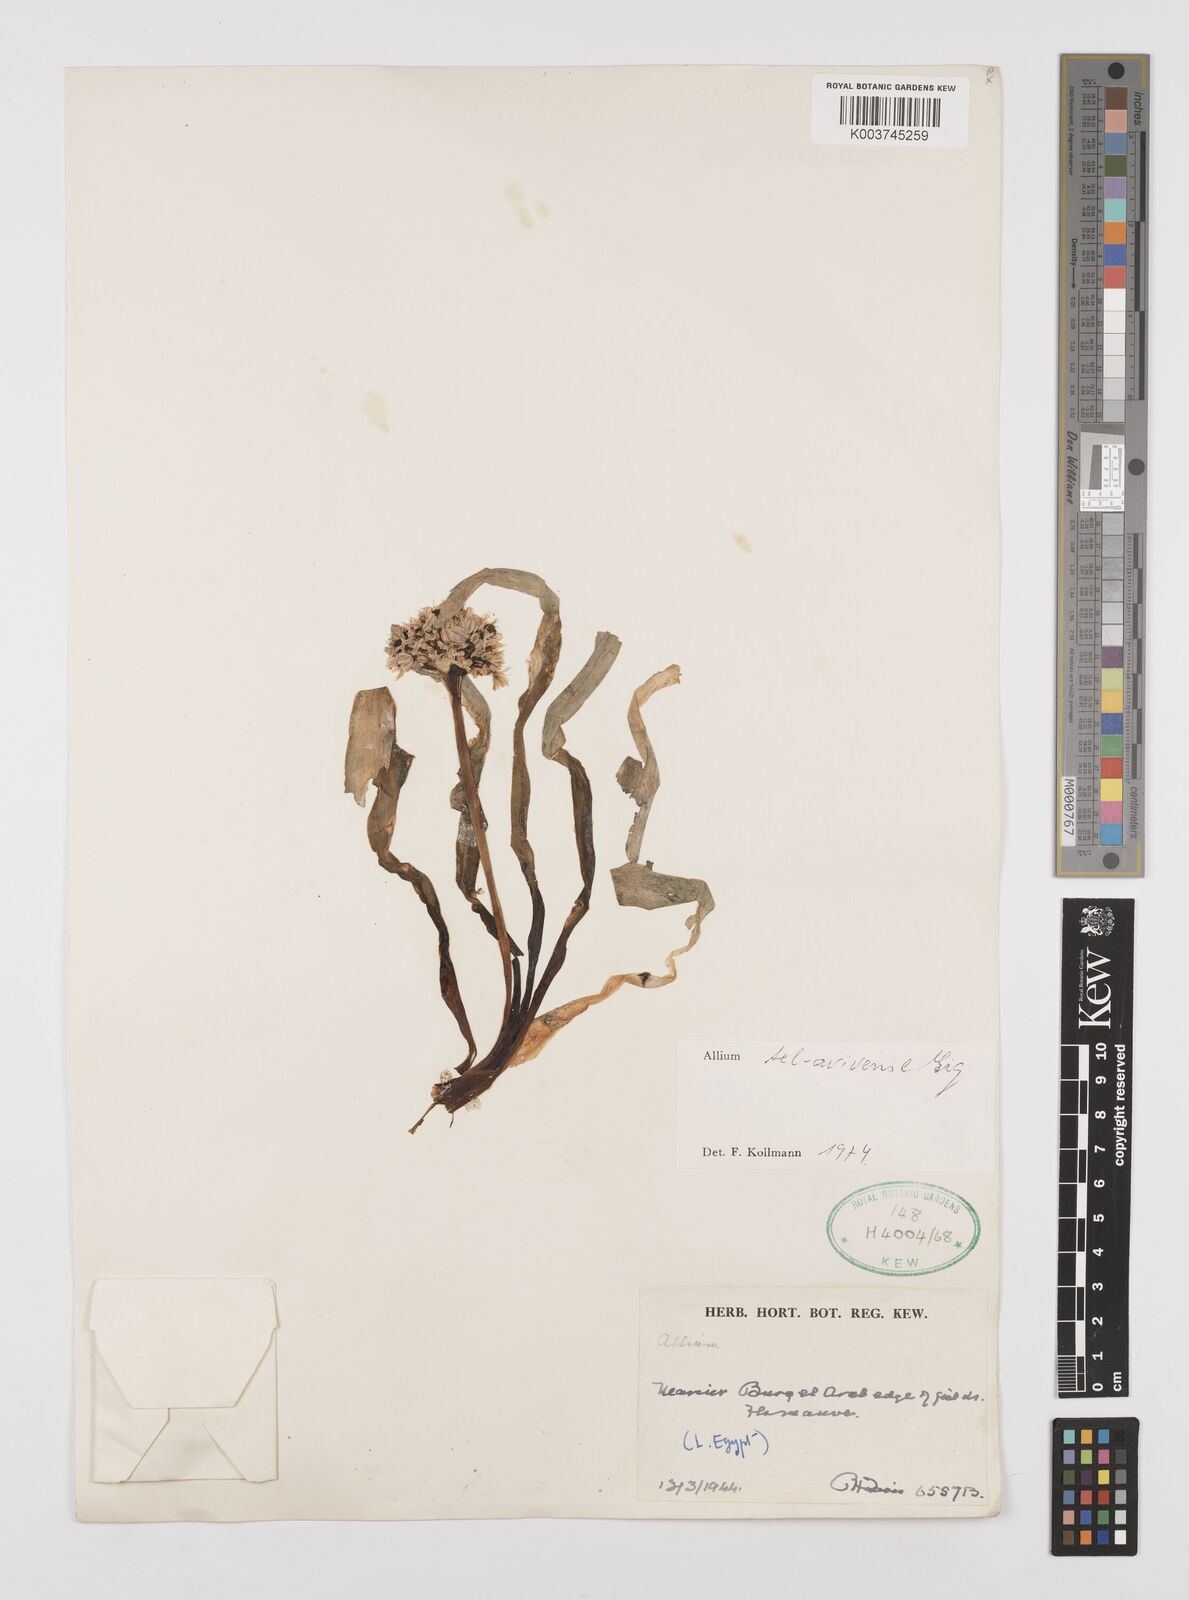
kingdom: Plantae
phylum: Tracheophyta
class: Liliopsida
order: Asparagales
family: Amaryllidaceae
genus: Allium
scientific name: Allium tel-avivense
